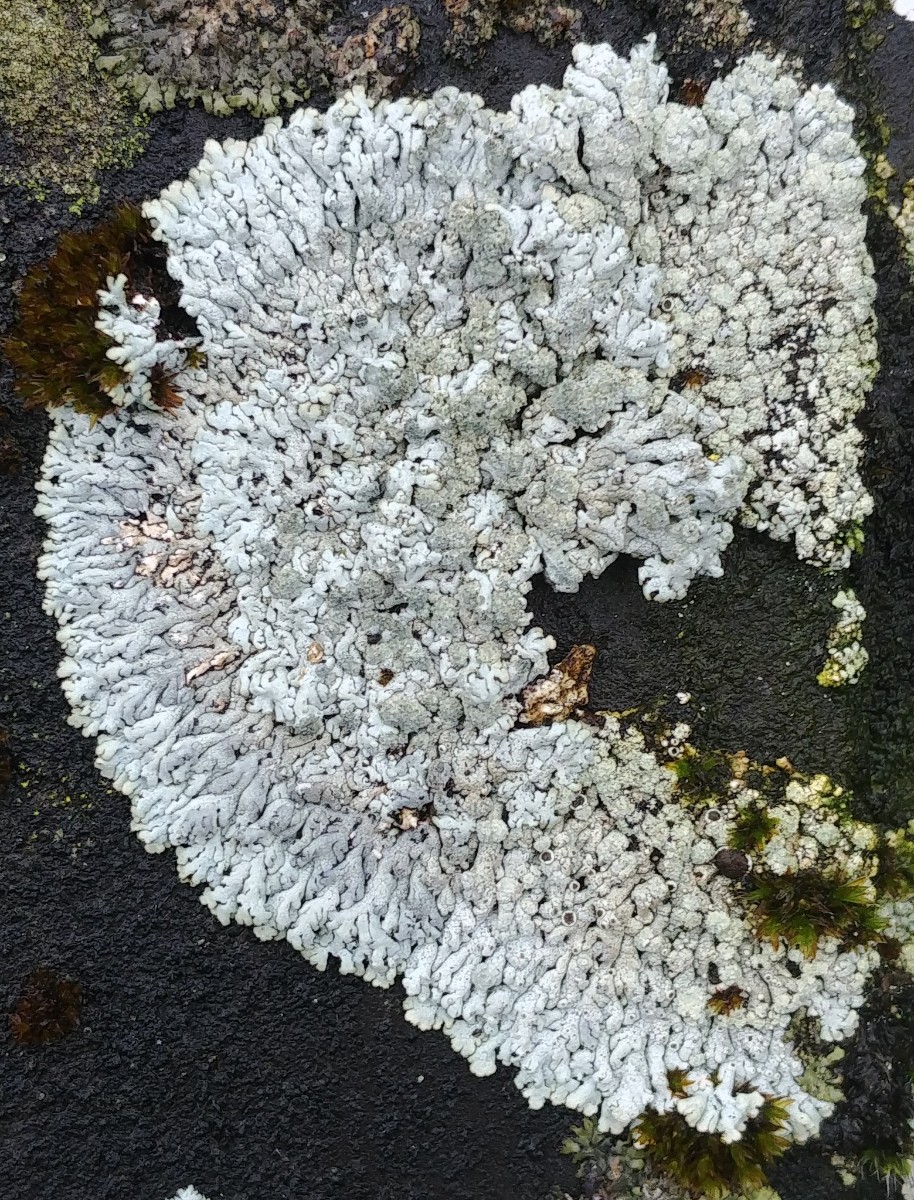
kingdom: Fungi
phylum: Ascomycota
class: Lecanoromycetes
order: Caliciales
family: Physciaceae
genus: Physcia
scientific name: Physcia caesia
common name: blågrå rosetlav
